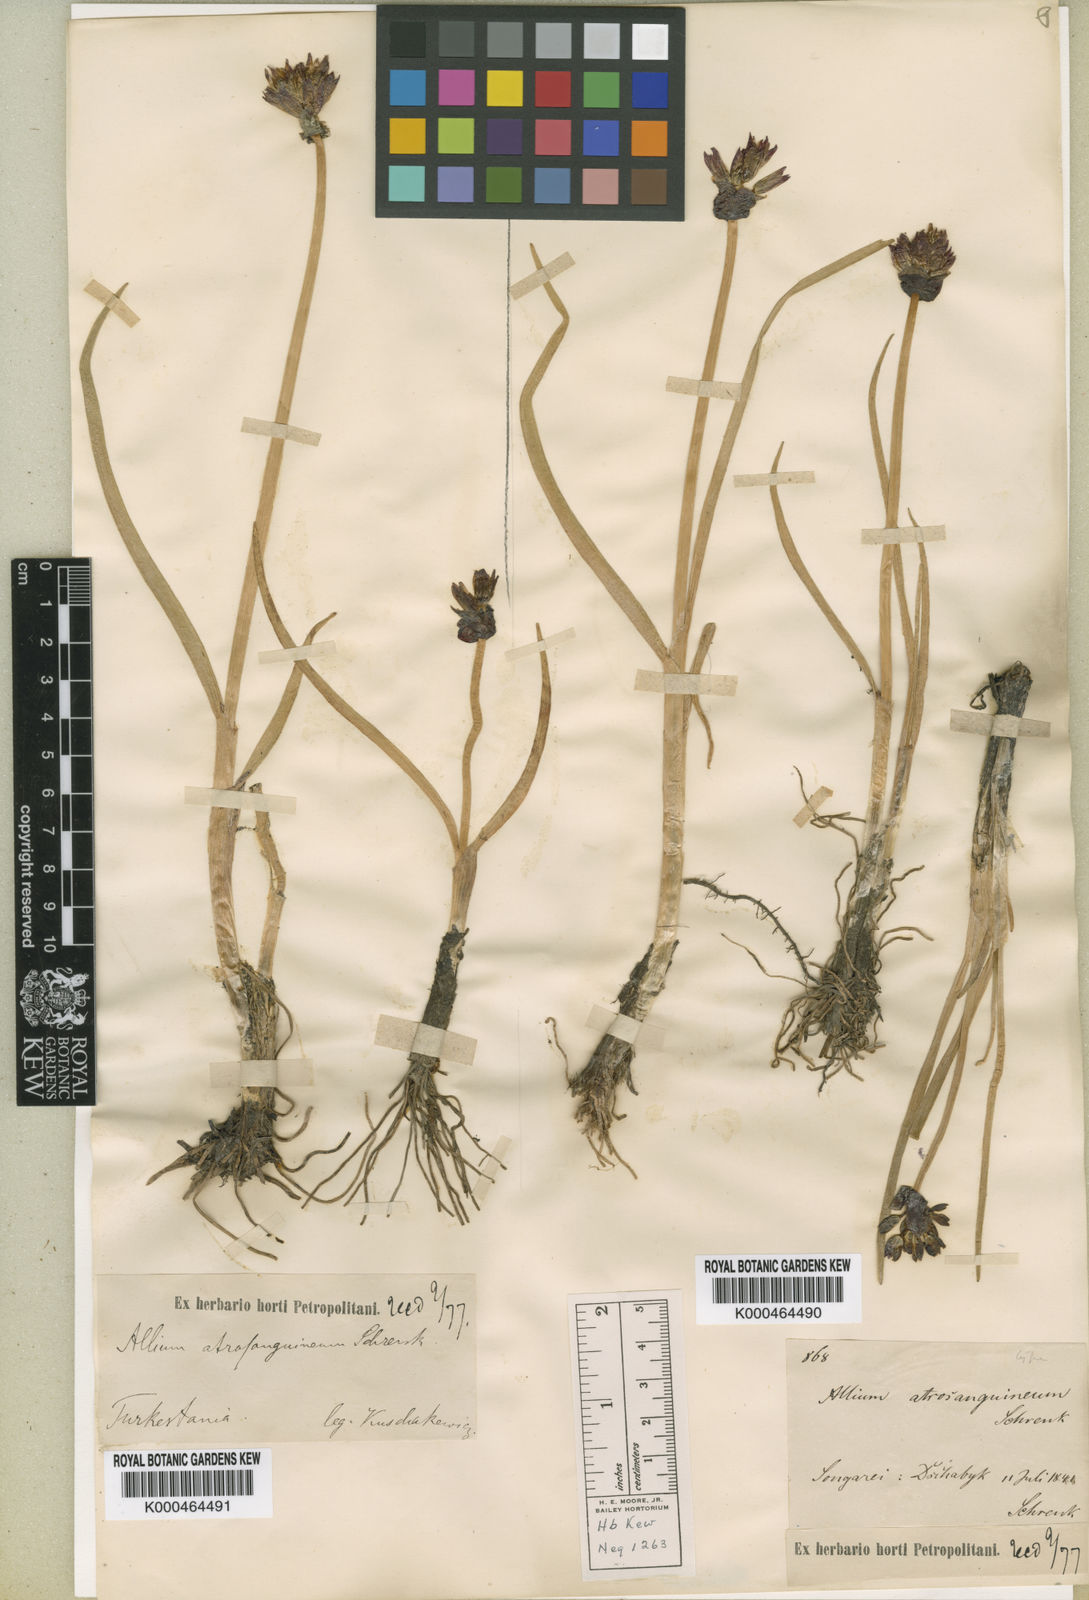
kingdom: Plantae
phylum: Tracheophyta
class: Liliopsida
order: Asparagales
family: Amaryllidaceae
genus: Allium
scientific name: Allium atrosanguineum
